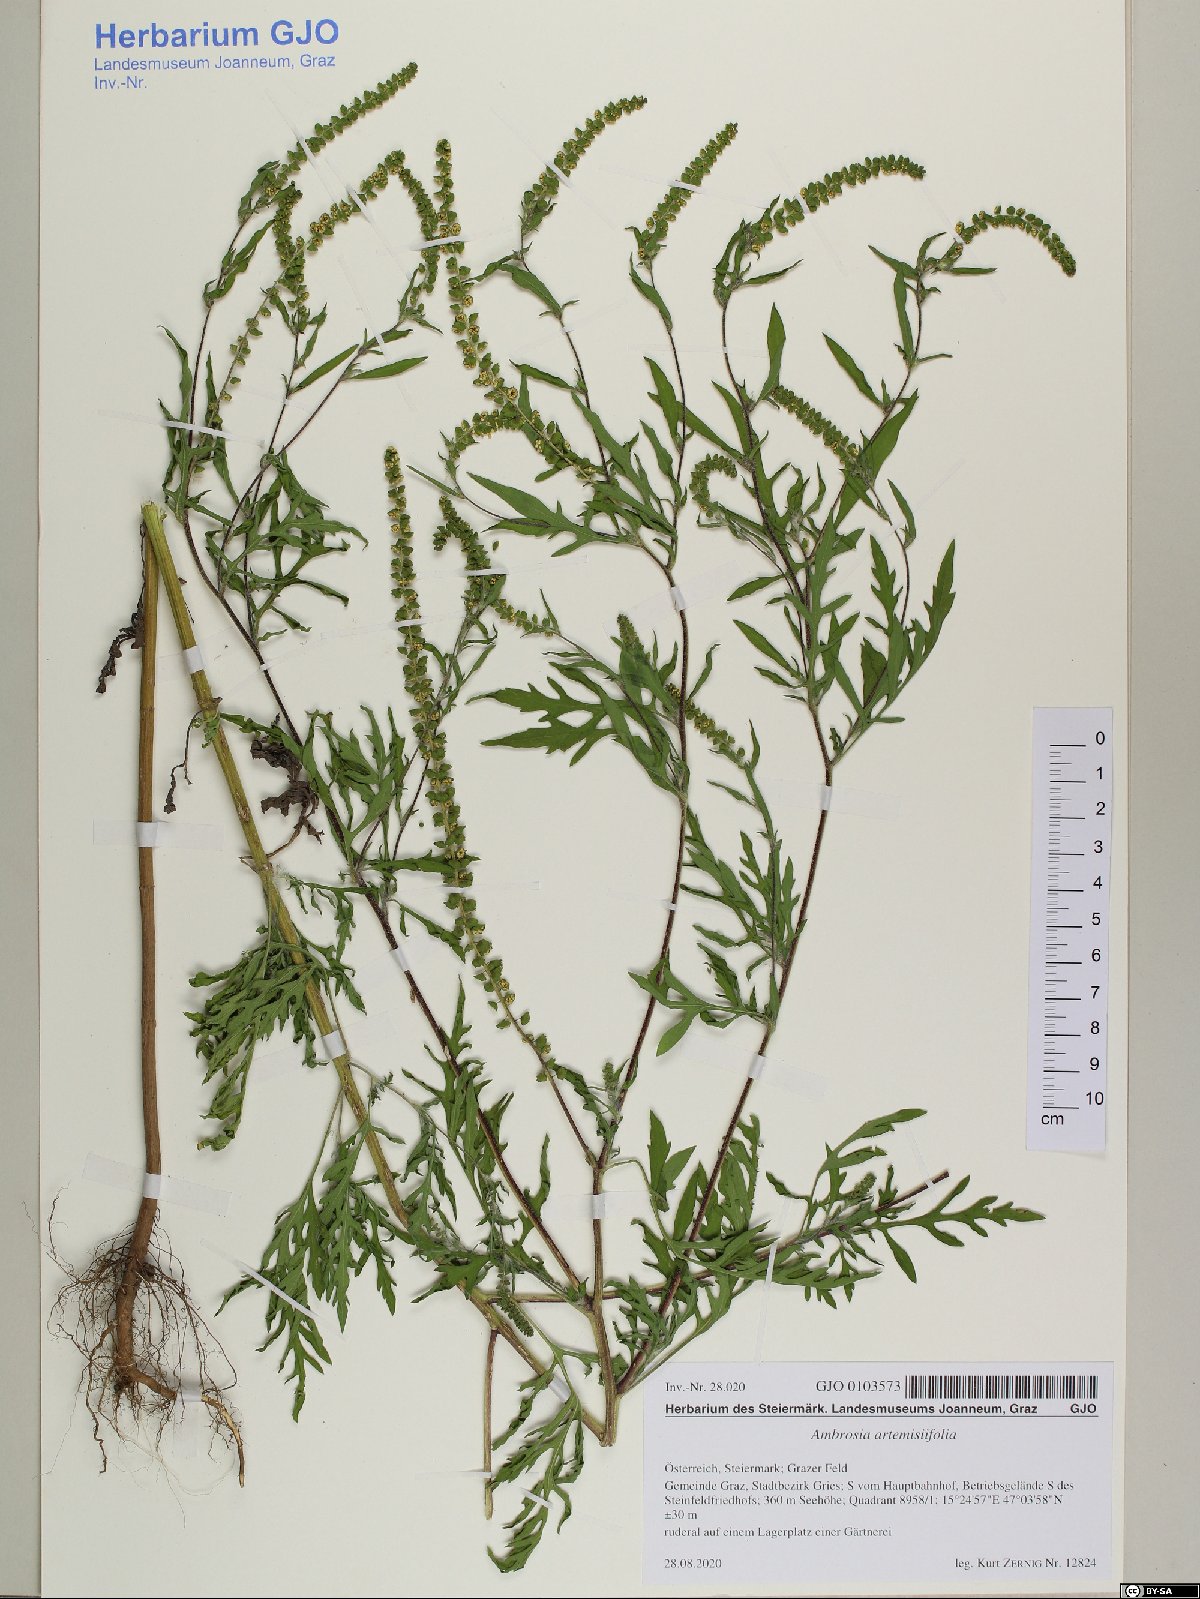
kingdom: Plantae
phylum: Tracheophyta
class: Magnoliopsida
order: Asterales
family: Asteraceae
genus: Ambrosia
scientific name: Ambrosia artemisiifolia
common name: Annual ragweed
